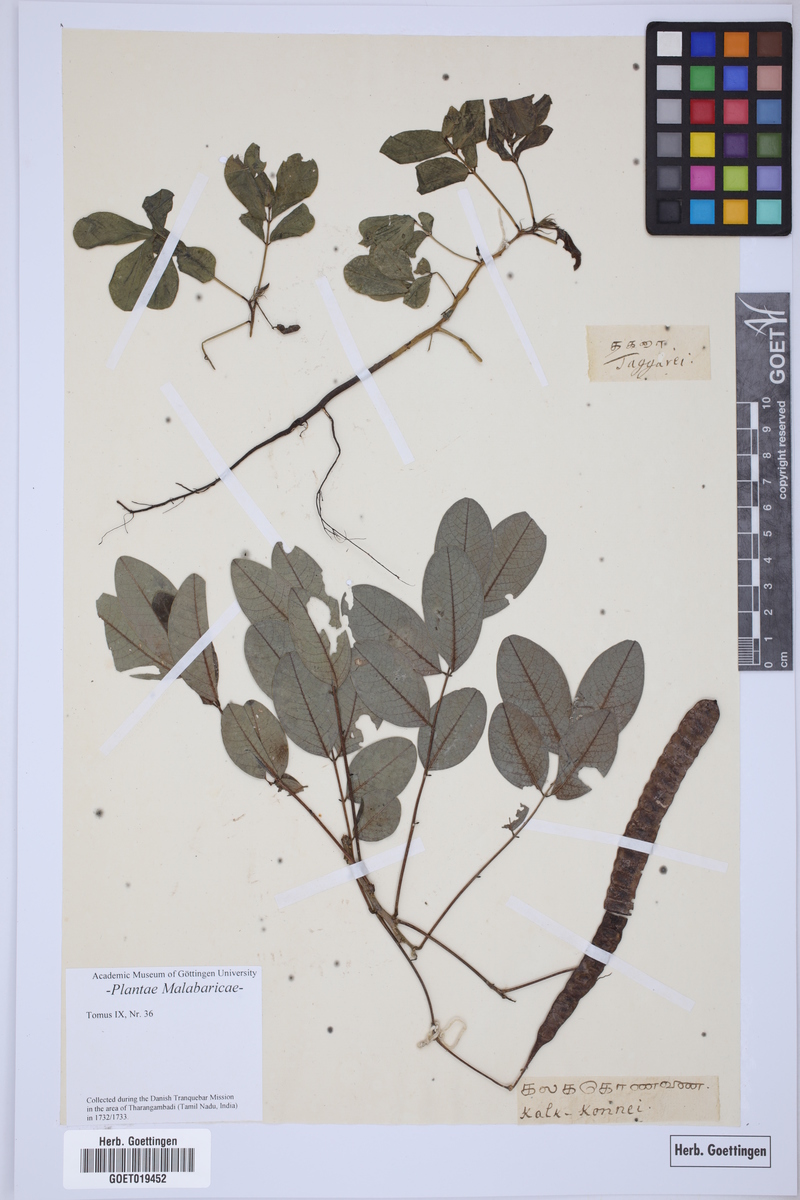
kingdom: Plantae
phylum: Tracheophyta
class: Magnoliopsida
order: Fabales
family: Fabaceae
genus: Senna
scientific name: Senna tora
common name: Sickle senna
